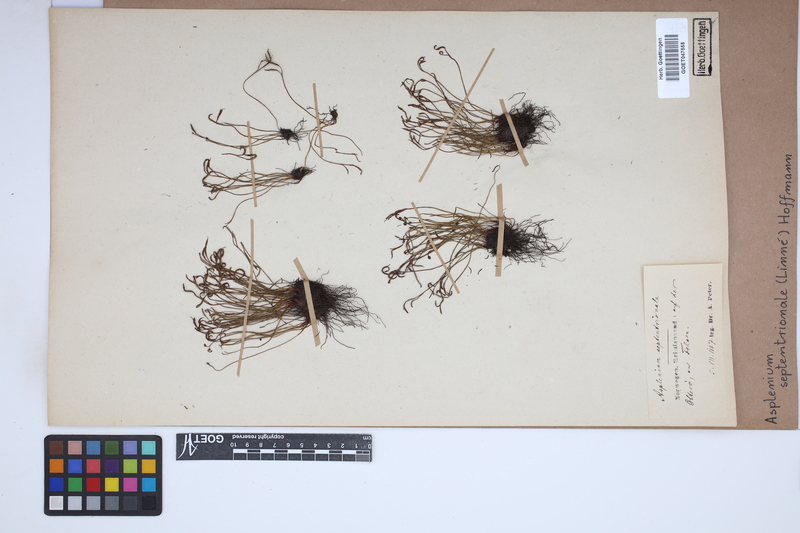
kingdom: Plantae
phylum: Tracheophyta
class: Polypodiopsida
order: Polypodiales
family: Aspleniaceae
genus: Asplenium
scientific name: Asplenium septentrionale
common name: Forked spleenwort
